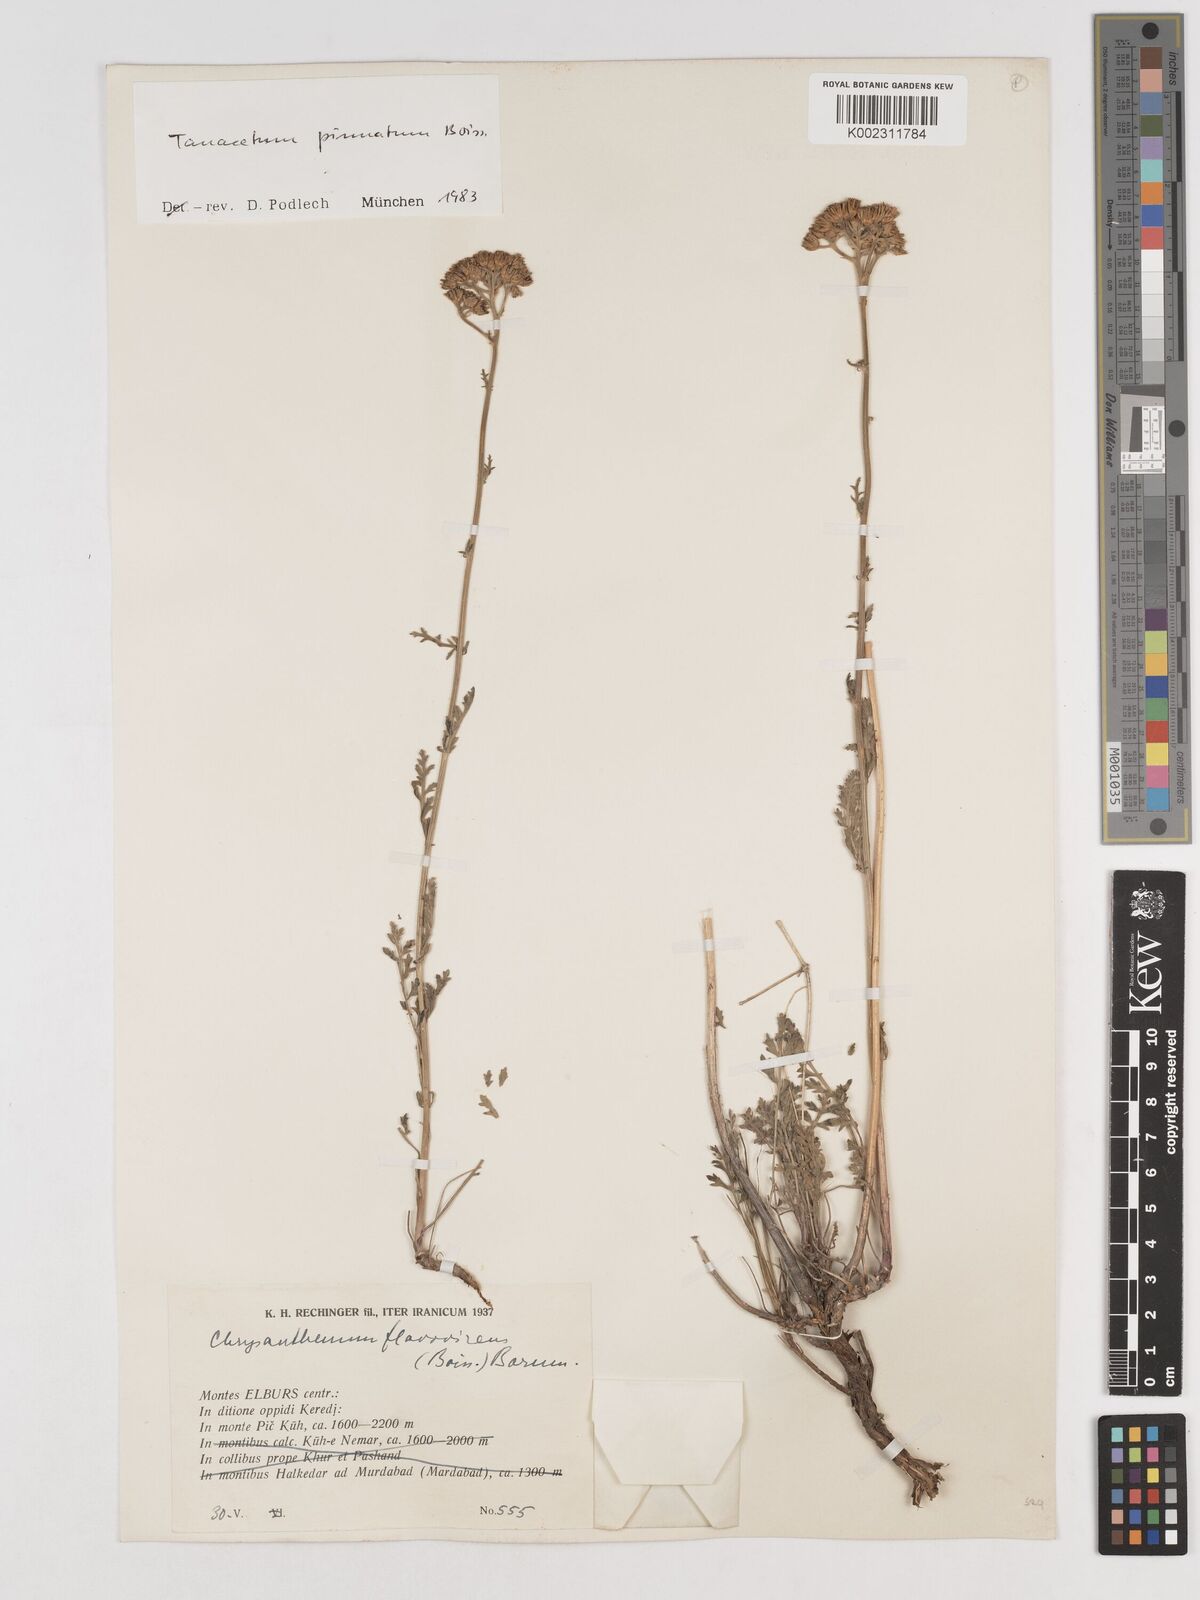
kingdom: Plantae
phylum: Tracheophyta
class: Magnoliopsida
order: Asterales
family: Asteraceae
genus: Tanacetum
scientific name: Tanacetum pinnatum
